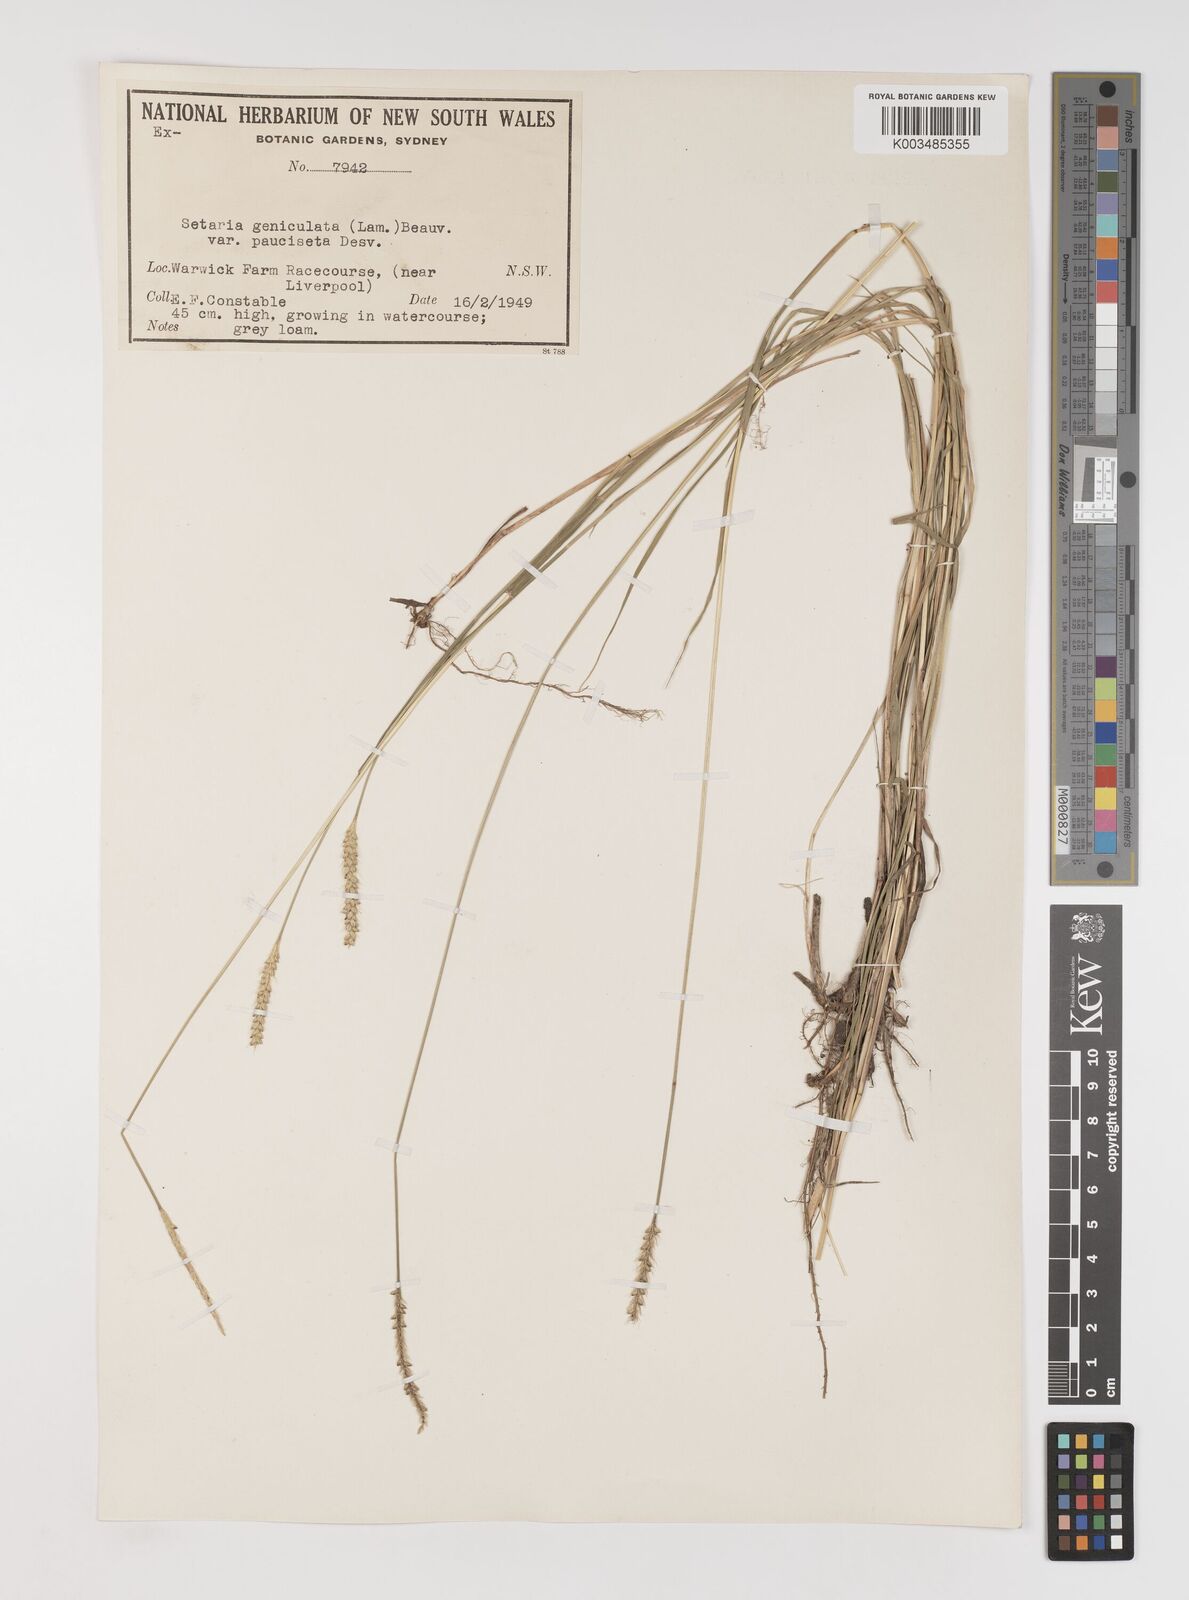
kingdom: Plantae
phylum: Tracheophyta
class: Liliopsida
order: Poales
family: Poaceae
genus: Setaria
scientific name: Setaria parviflora
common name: Knotroot bristle-grass
